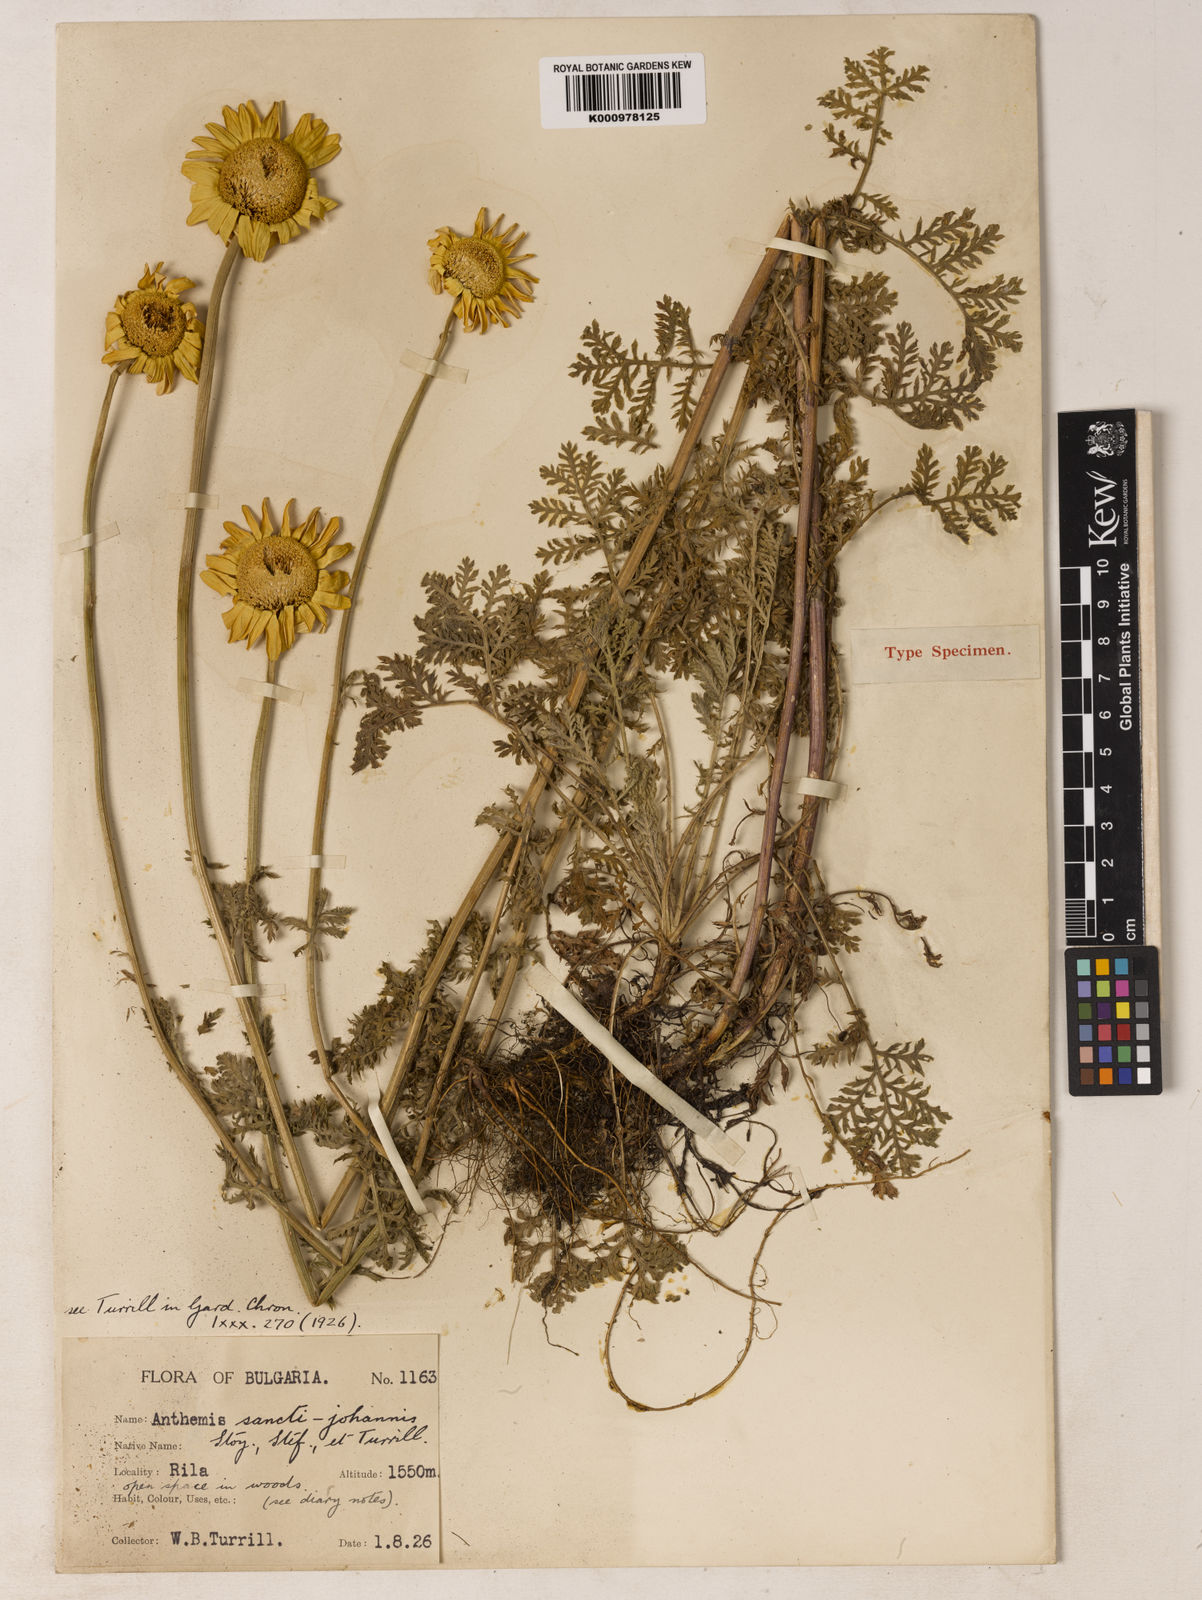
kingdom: Plantae
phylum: Tracheophyta
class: Magnoliopsida
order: Asterales
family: Asteraceae
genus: Cota
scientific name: Cota tinctoria
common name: Golden chamomile
